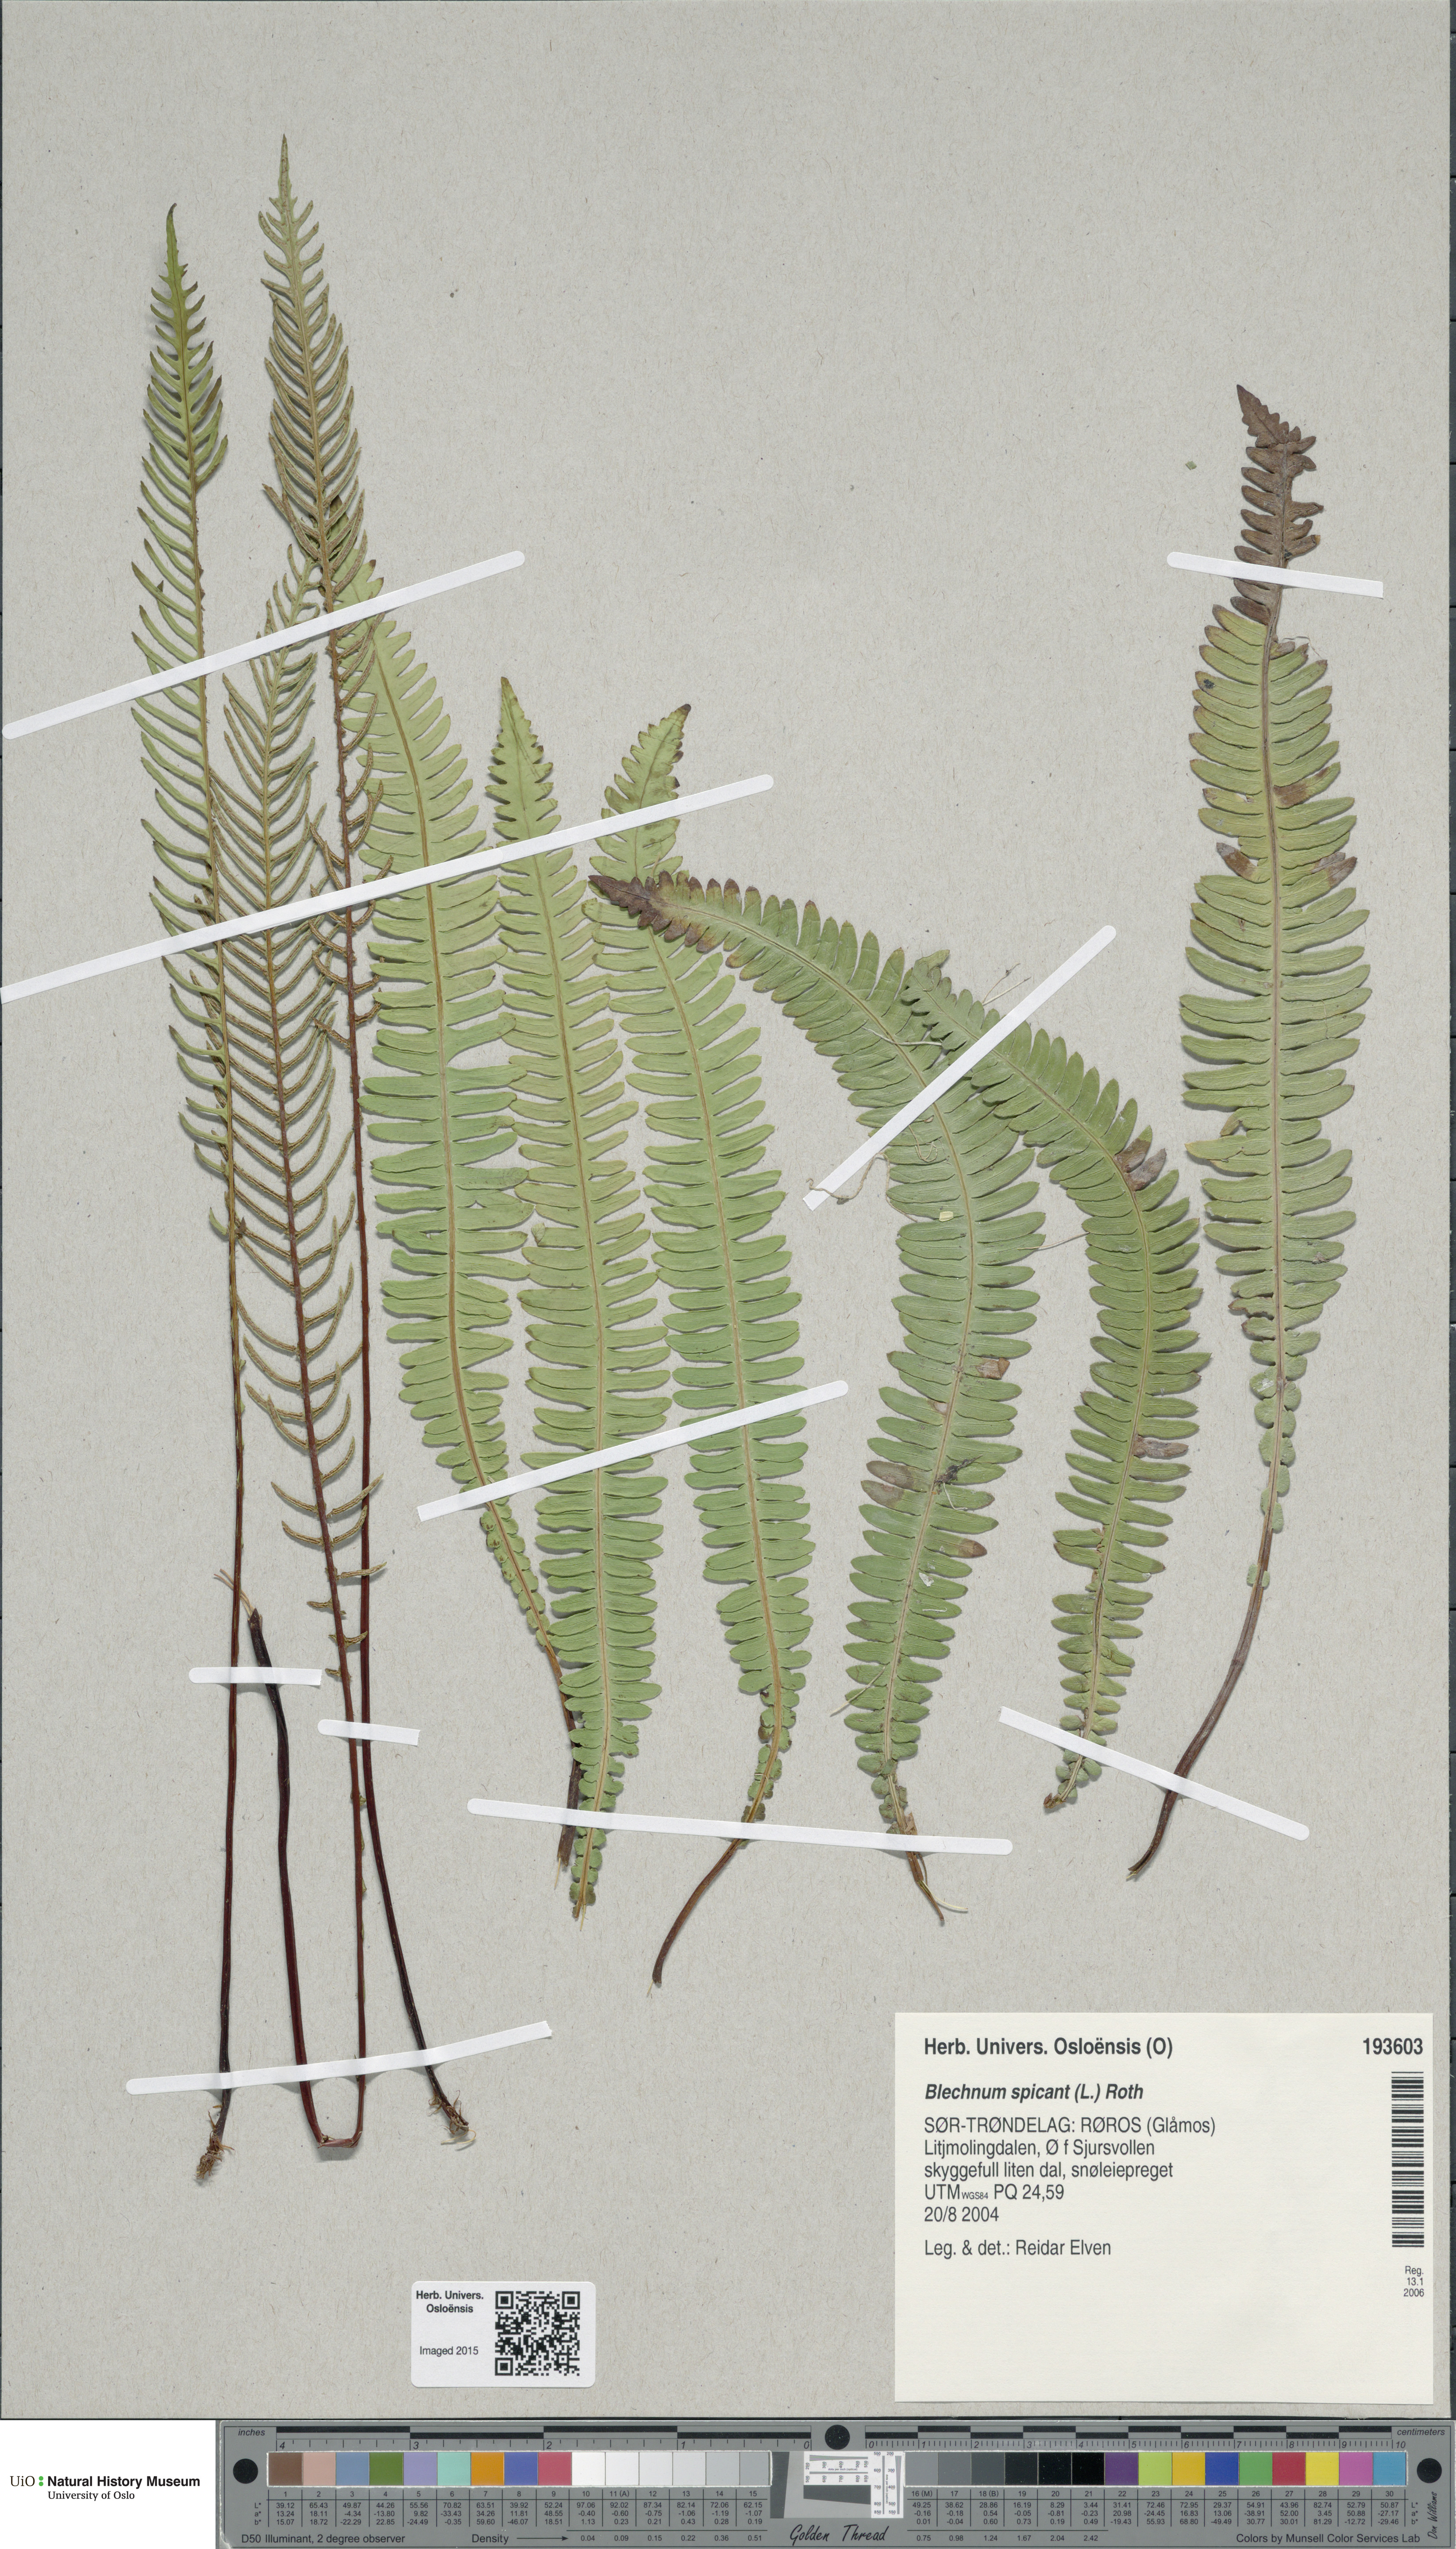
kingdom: Plantae
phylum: Tracheophyta
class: Polypodiopsida
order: Polypodiales
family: Blechnaceae
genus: Struthiopteris
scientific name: Struthiopteris spicant
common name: Deer fern
